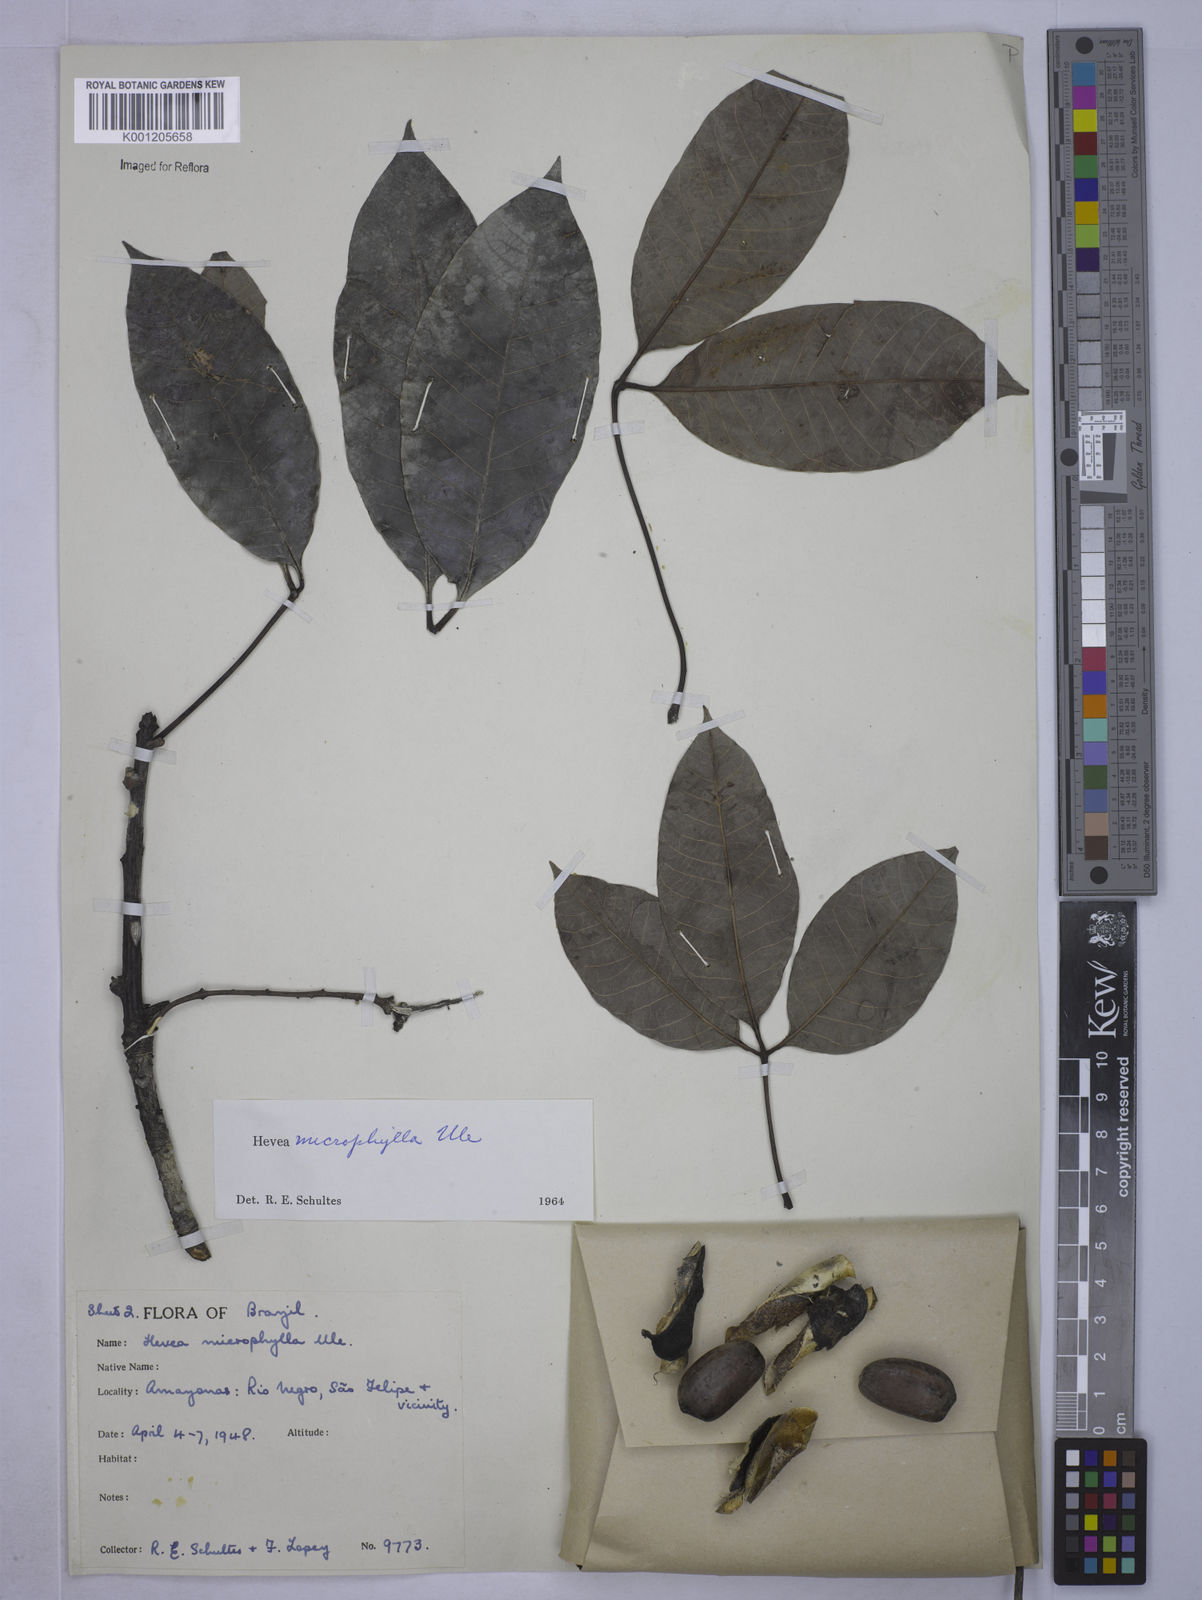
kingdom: Plantae
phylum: Tracheophyta
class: Magnoliopsida
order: Malpighiales
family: Euphorbiaceae
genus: Hevea
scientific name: Hevea microphylla
